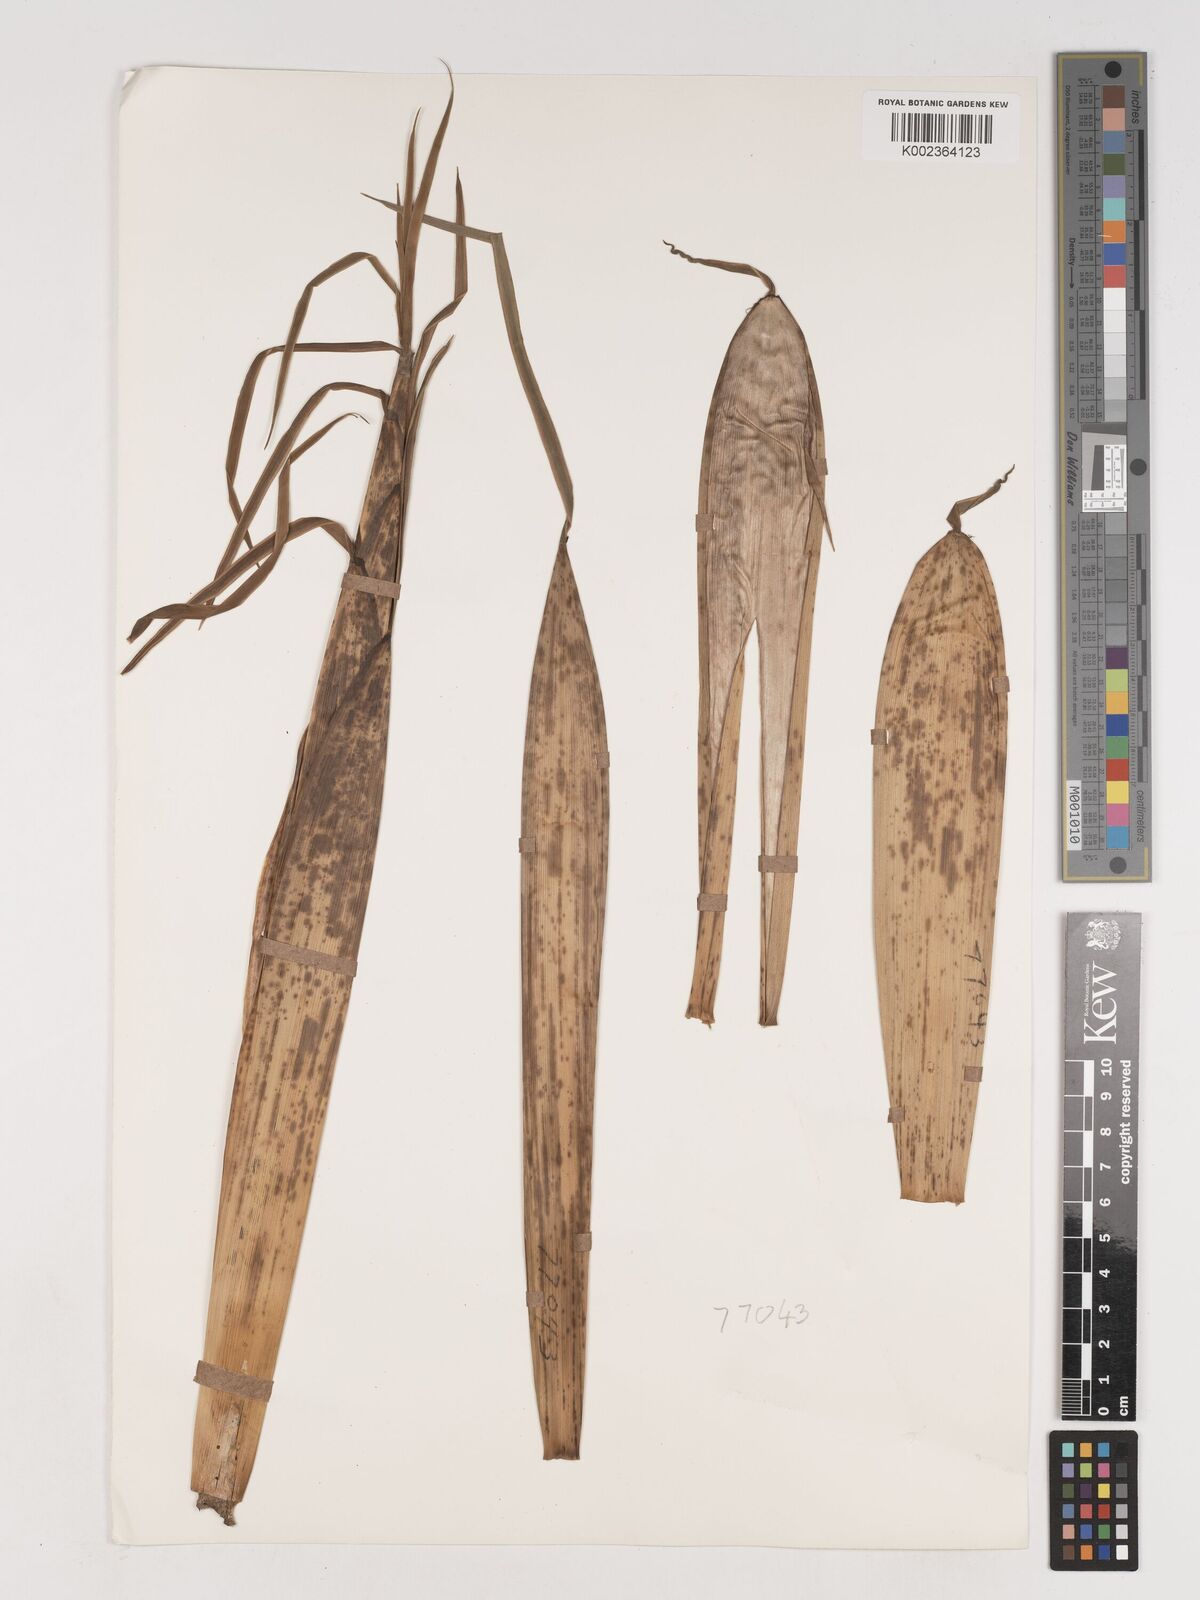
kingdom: Plantae
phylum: Tracheophyta
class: Liliopsida
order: Poales
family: Poaceae
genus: Phyllostachys
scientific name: Phyllostachys reticulata
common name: Bamboo
